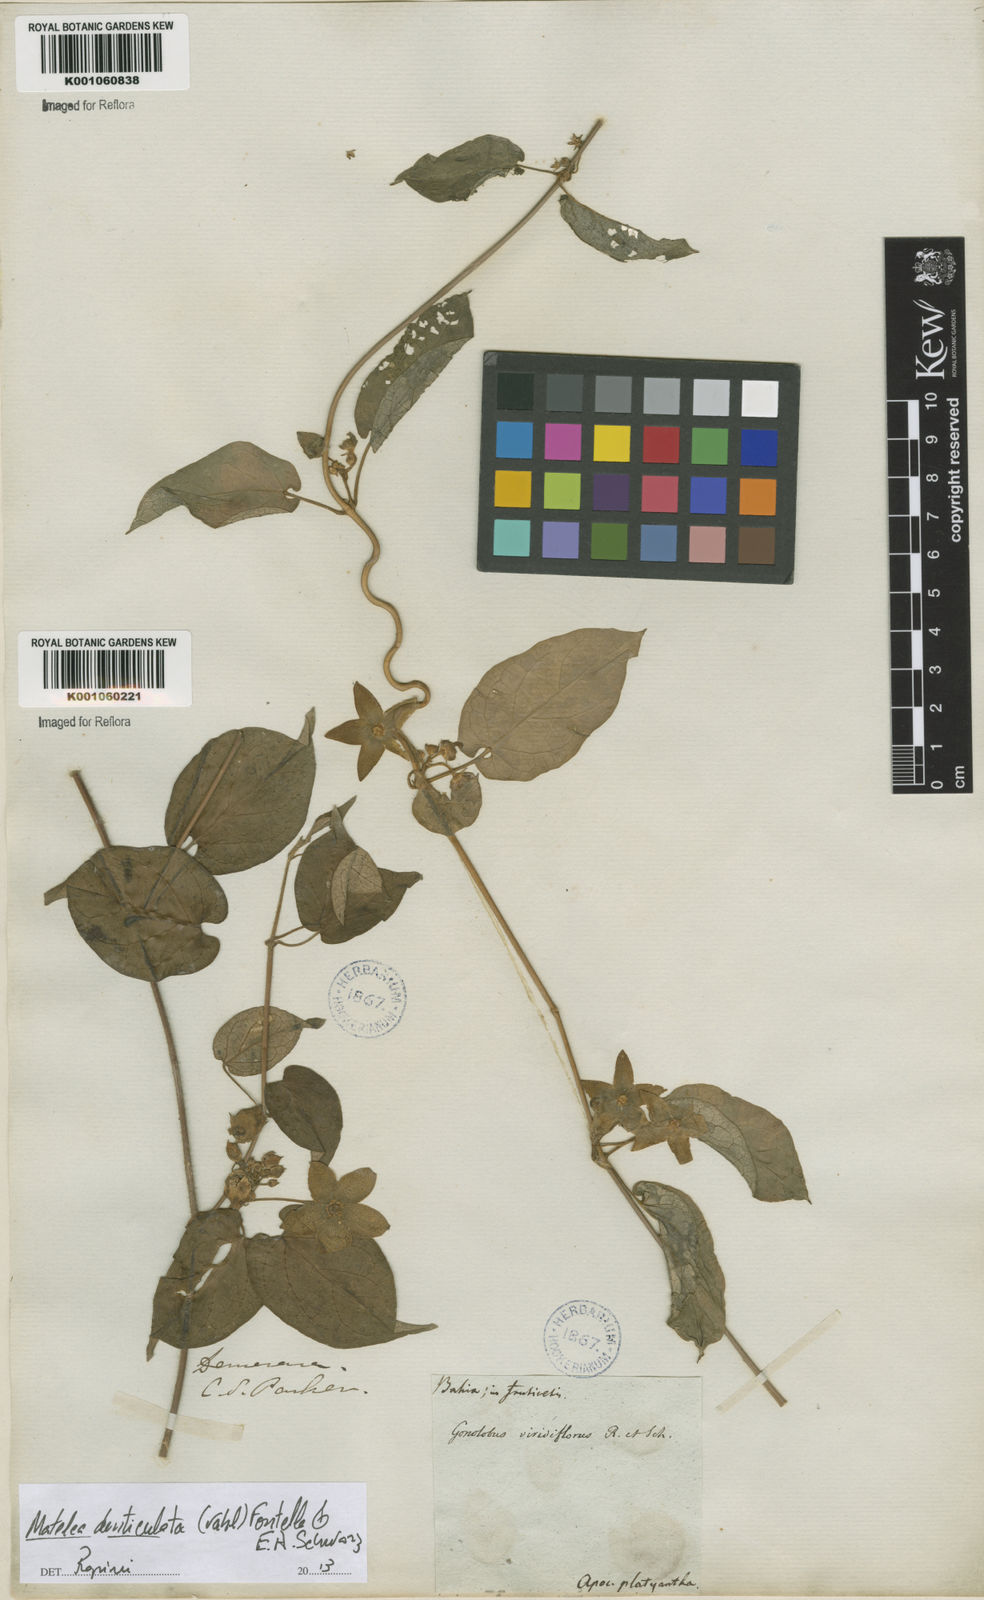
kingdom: Plantae
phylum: Tracheophyta
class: Magnoliopsida
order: Gentianales
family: Apocynaceae
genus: Chloropetalum
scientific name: Chloropetalum denticulatum
